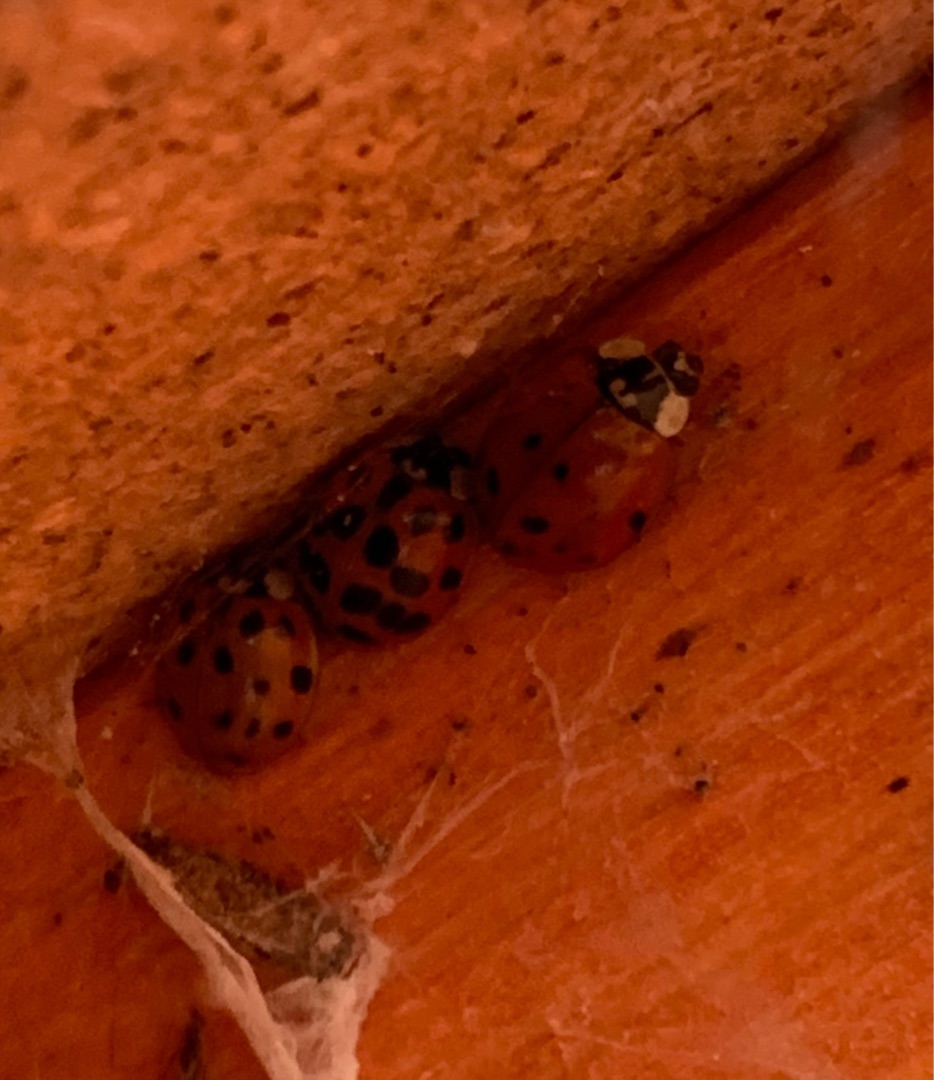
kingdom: Animalia
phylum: Arthropoda
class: Insecta
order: Coleoptera
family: Coccinellidae
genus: Harmonia
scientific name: Harmonia axyridis
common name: Harlekinmariehøne
